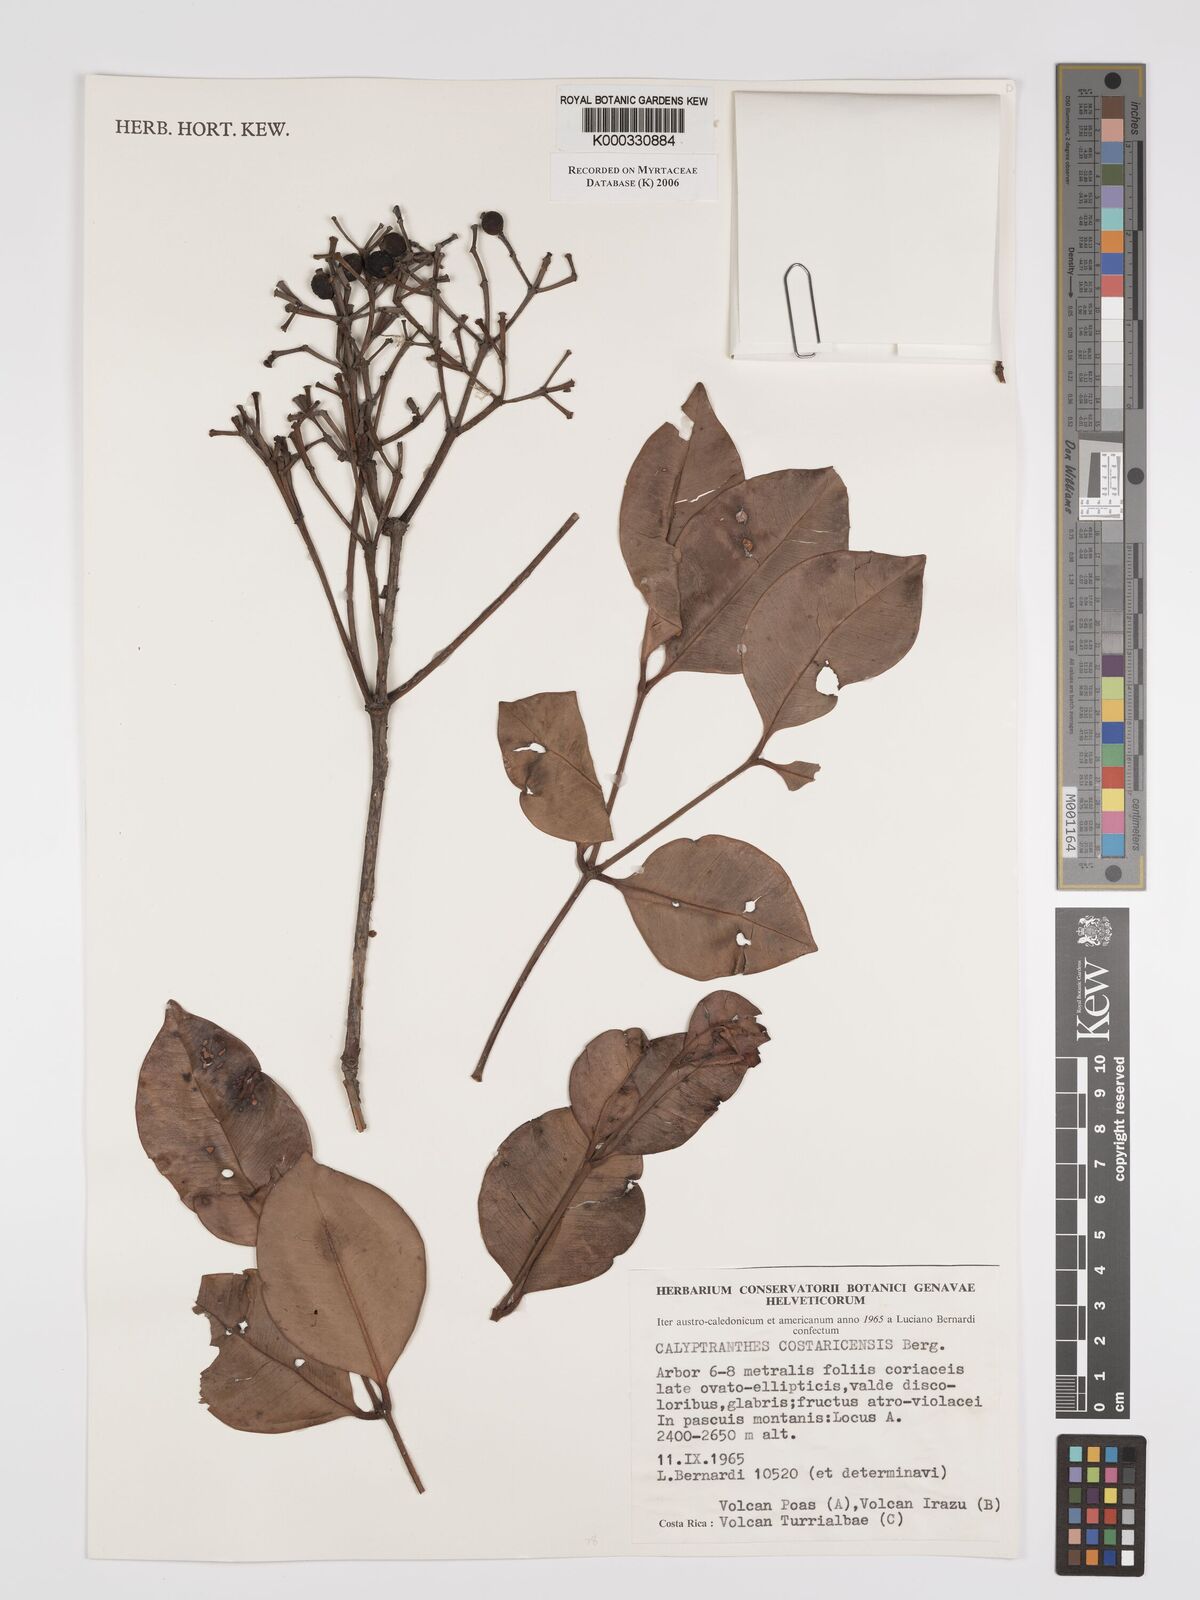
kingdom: Plantae
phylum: Tracheophyta
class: Magnoliopsida
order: Myrtales
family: Myrtaceae
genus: Myrcia
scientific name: Myrcia neopallens
